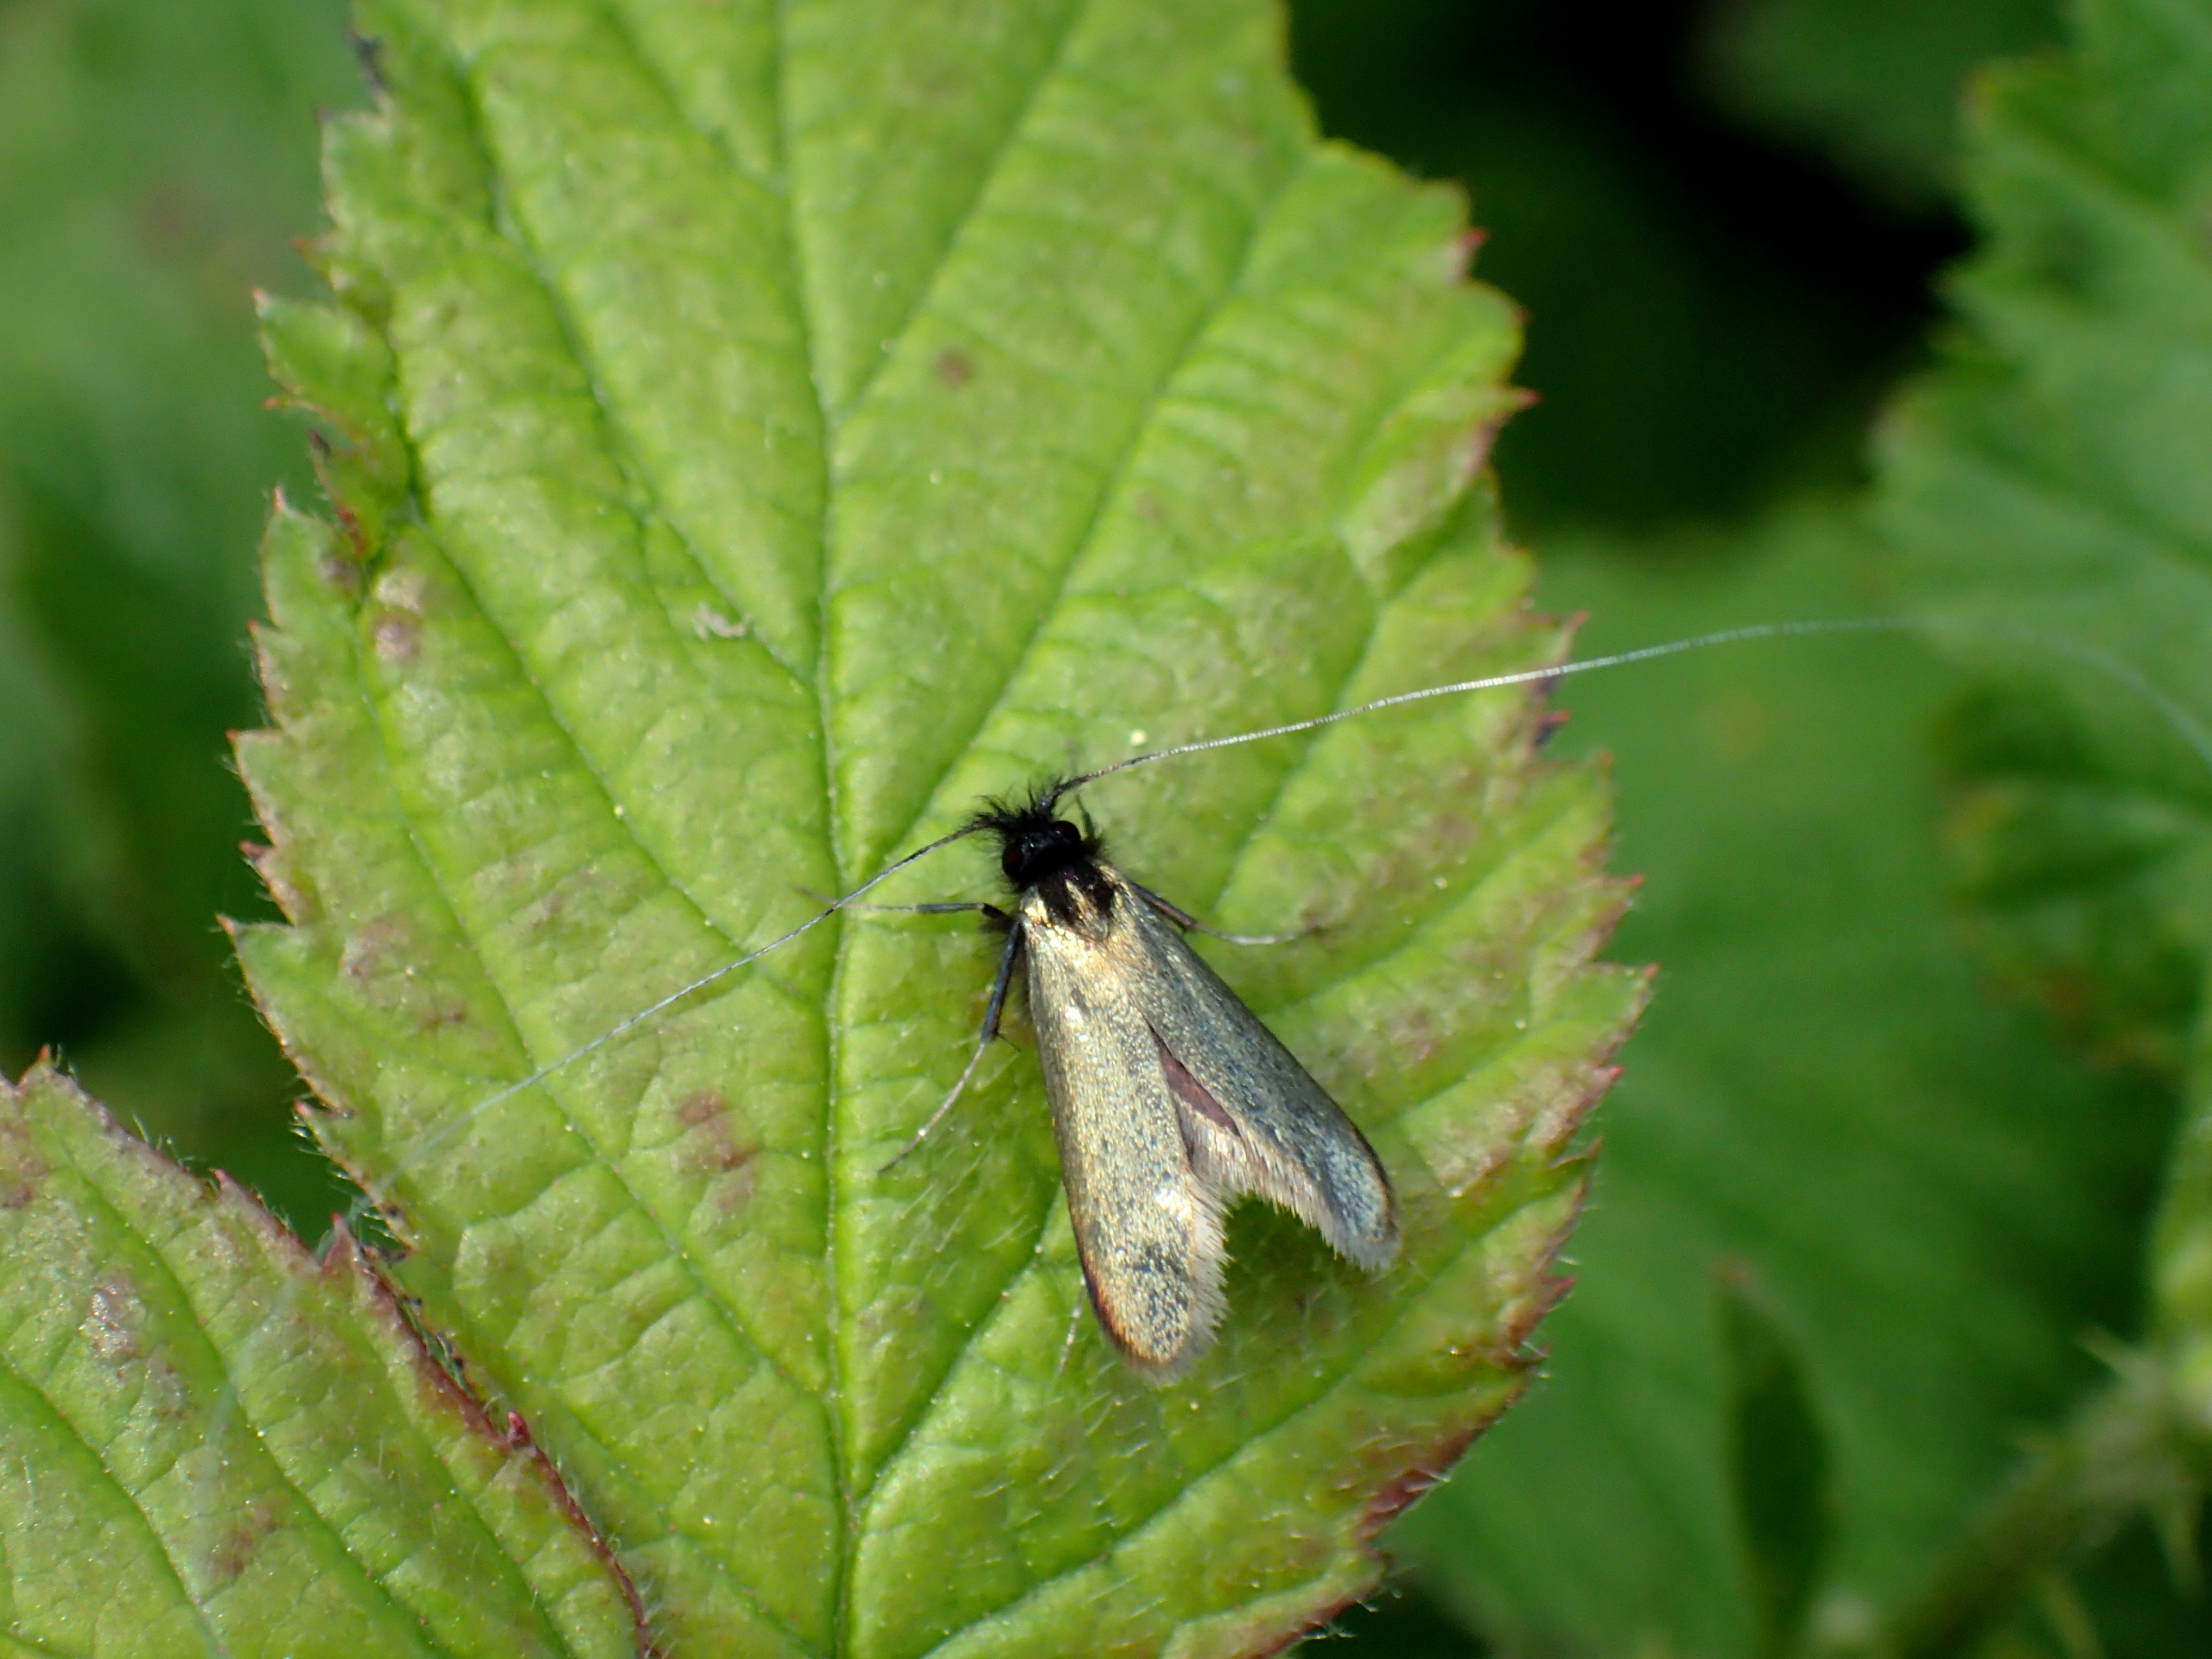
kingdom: Animalia
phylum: Arthropoda
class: Insecta
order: Lepidoptera
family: Adelidae
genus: Adela
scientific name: Adela viridella
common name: Egelanghornsmøl
